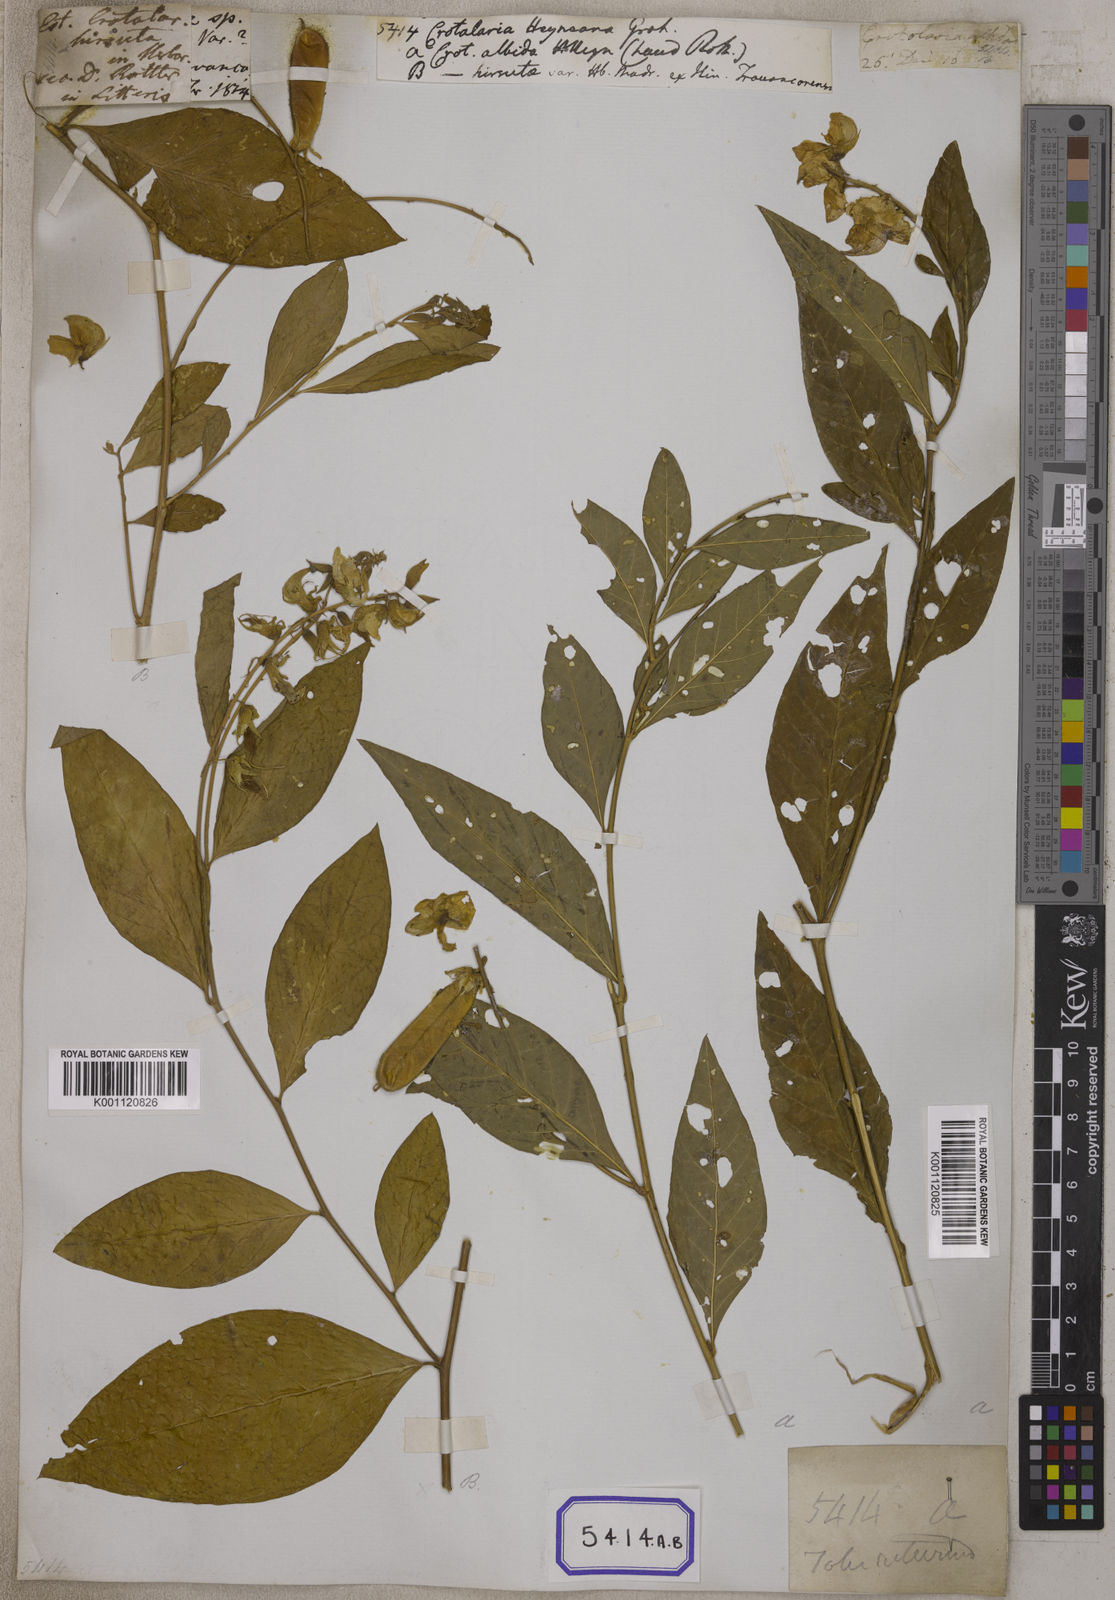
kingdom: Plantae
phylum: Tracheophyta
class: Magnoliopsida
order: Fabales
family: Fabaceae
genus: Crotalaria
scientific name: Crotalaria
